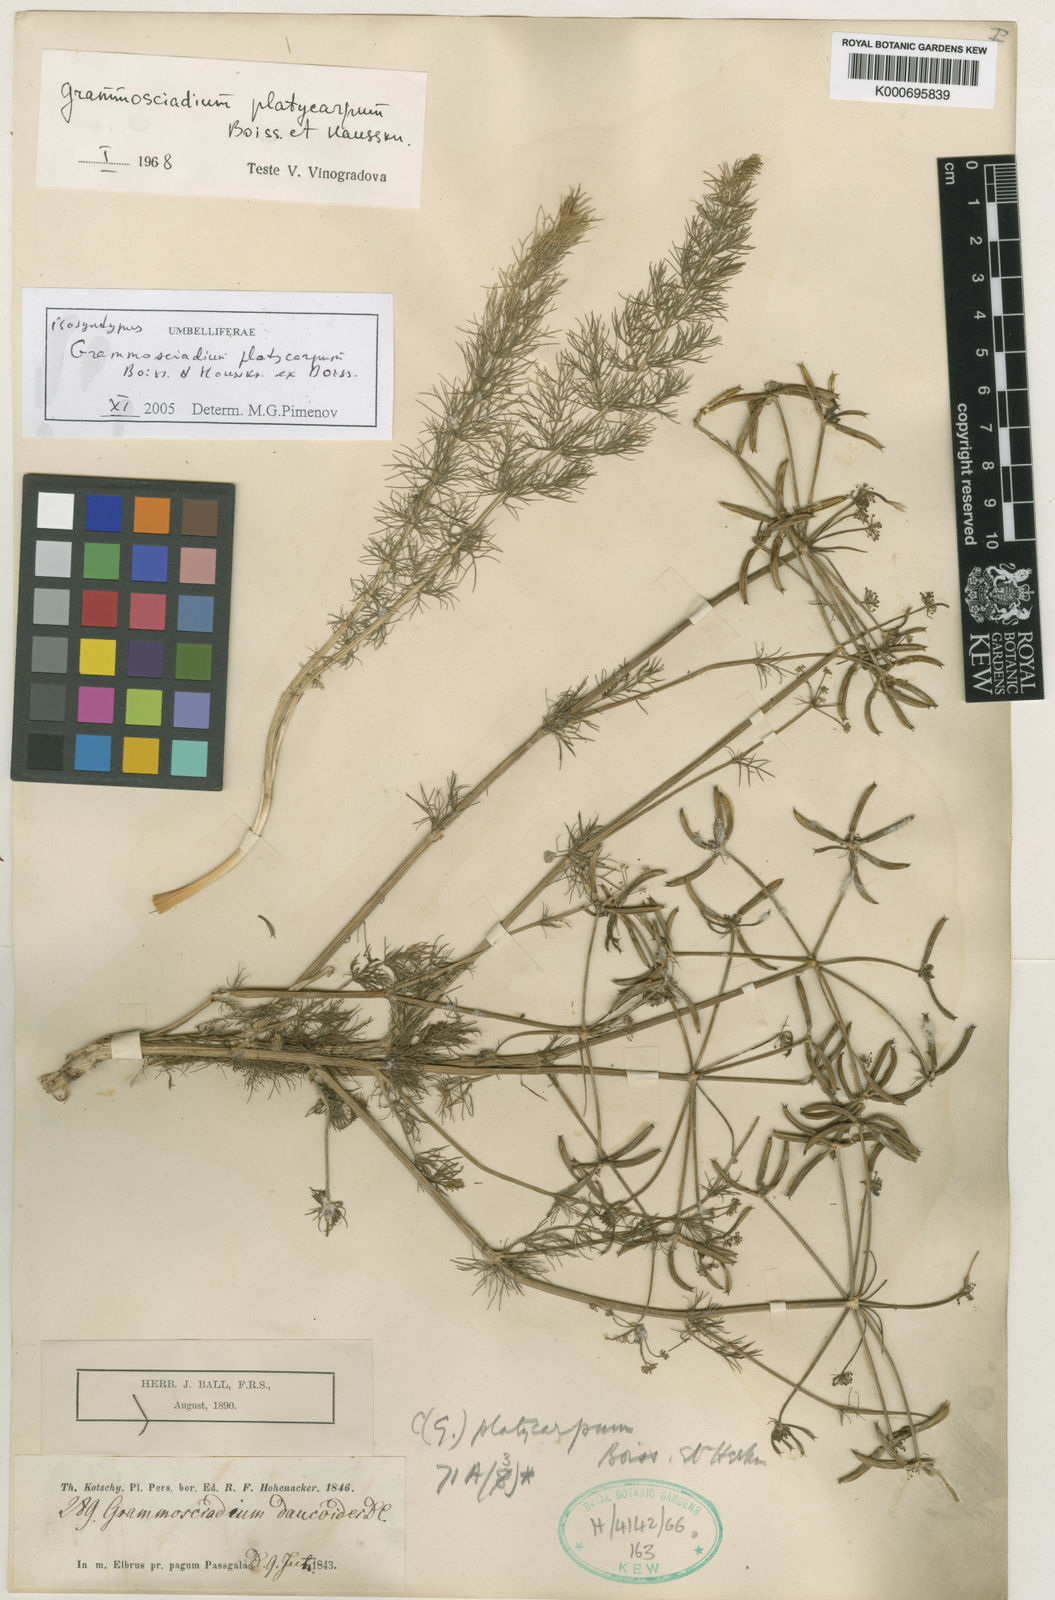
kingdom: Plantae
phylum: Tracheophyta
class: Magnoliopsida
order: Apiales
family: Apiaceae
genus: Caropodium
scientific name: Caropodium platycarpum
